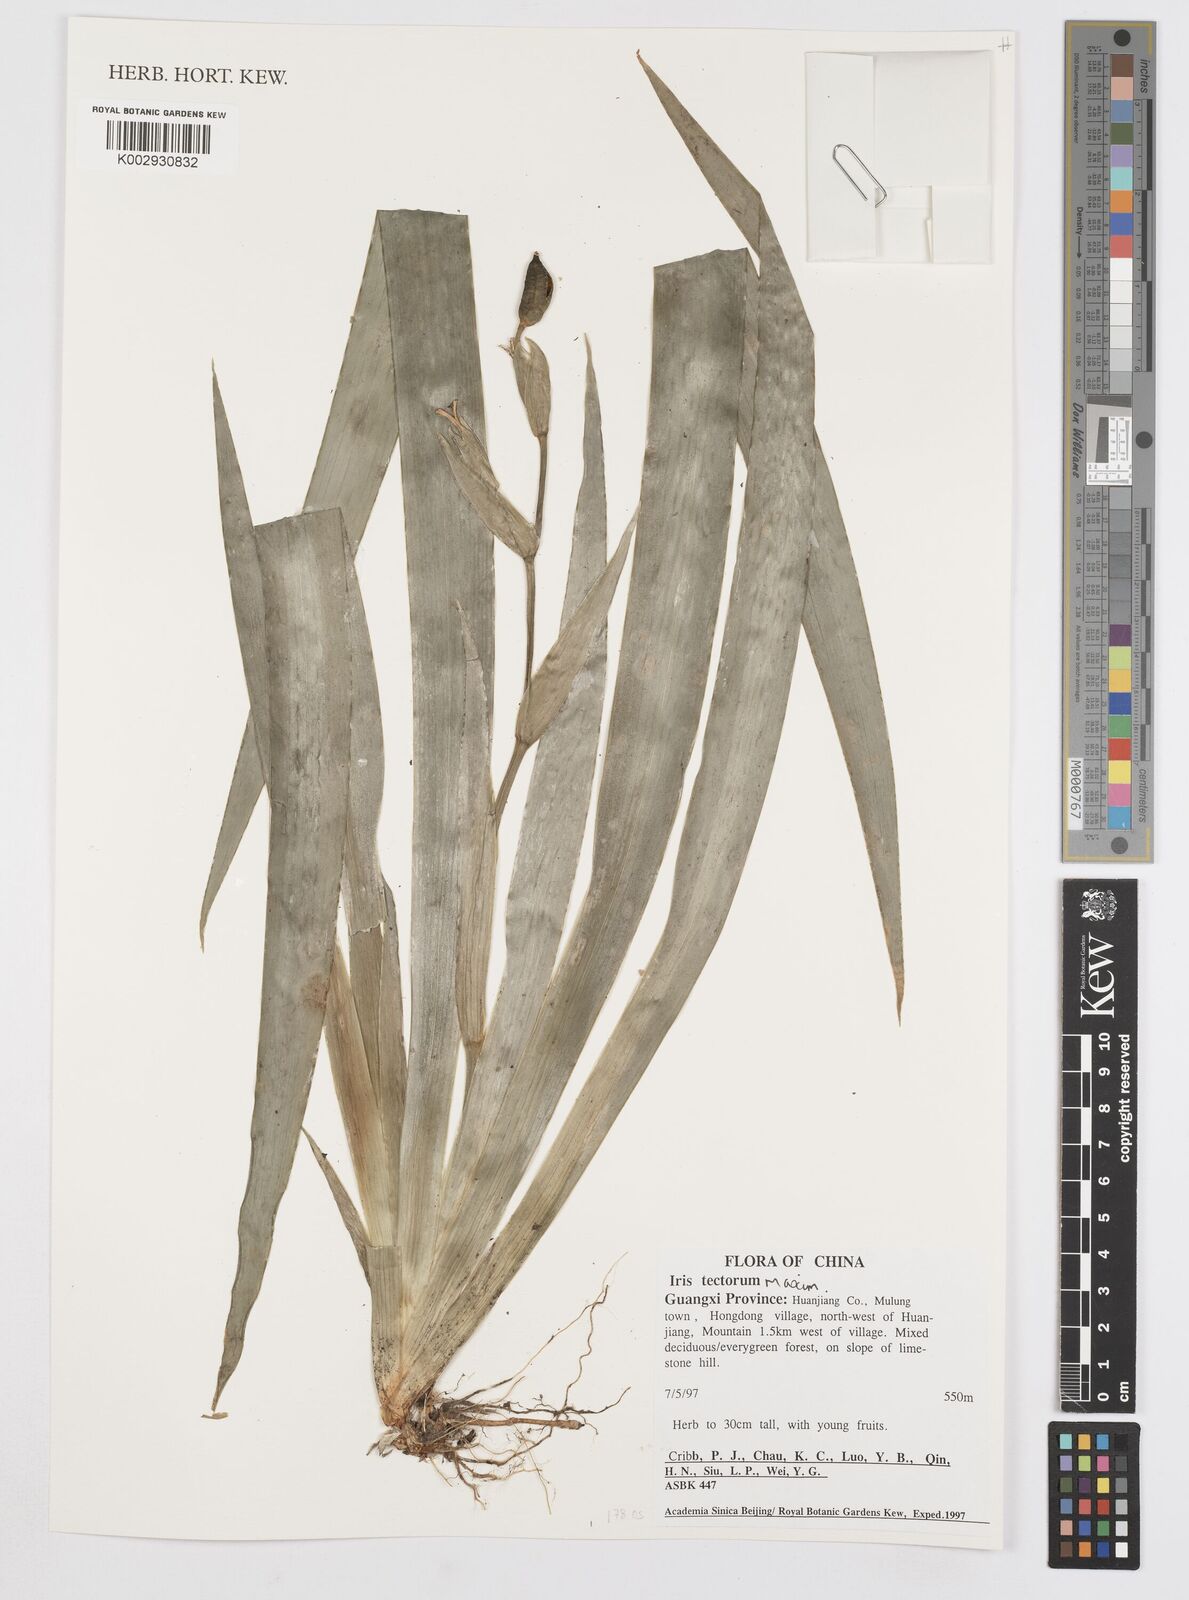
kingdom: Plantae
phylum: Tracheophyta
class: Liliopsida
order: Asparagales
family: Iridaceae
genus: Iris
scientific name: Iris tectorum
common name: Wall iris
